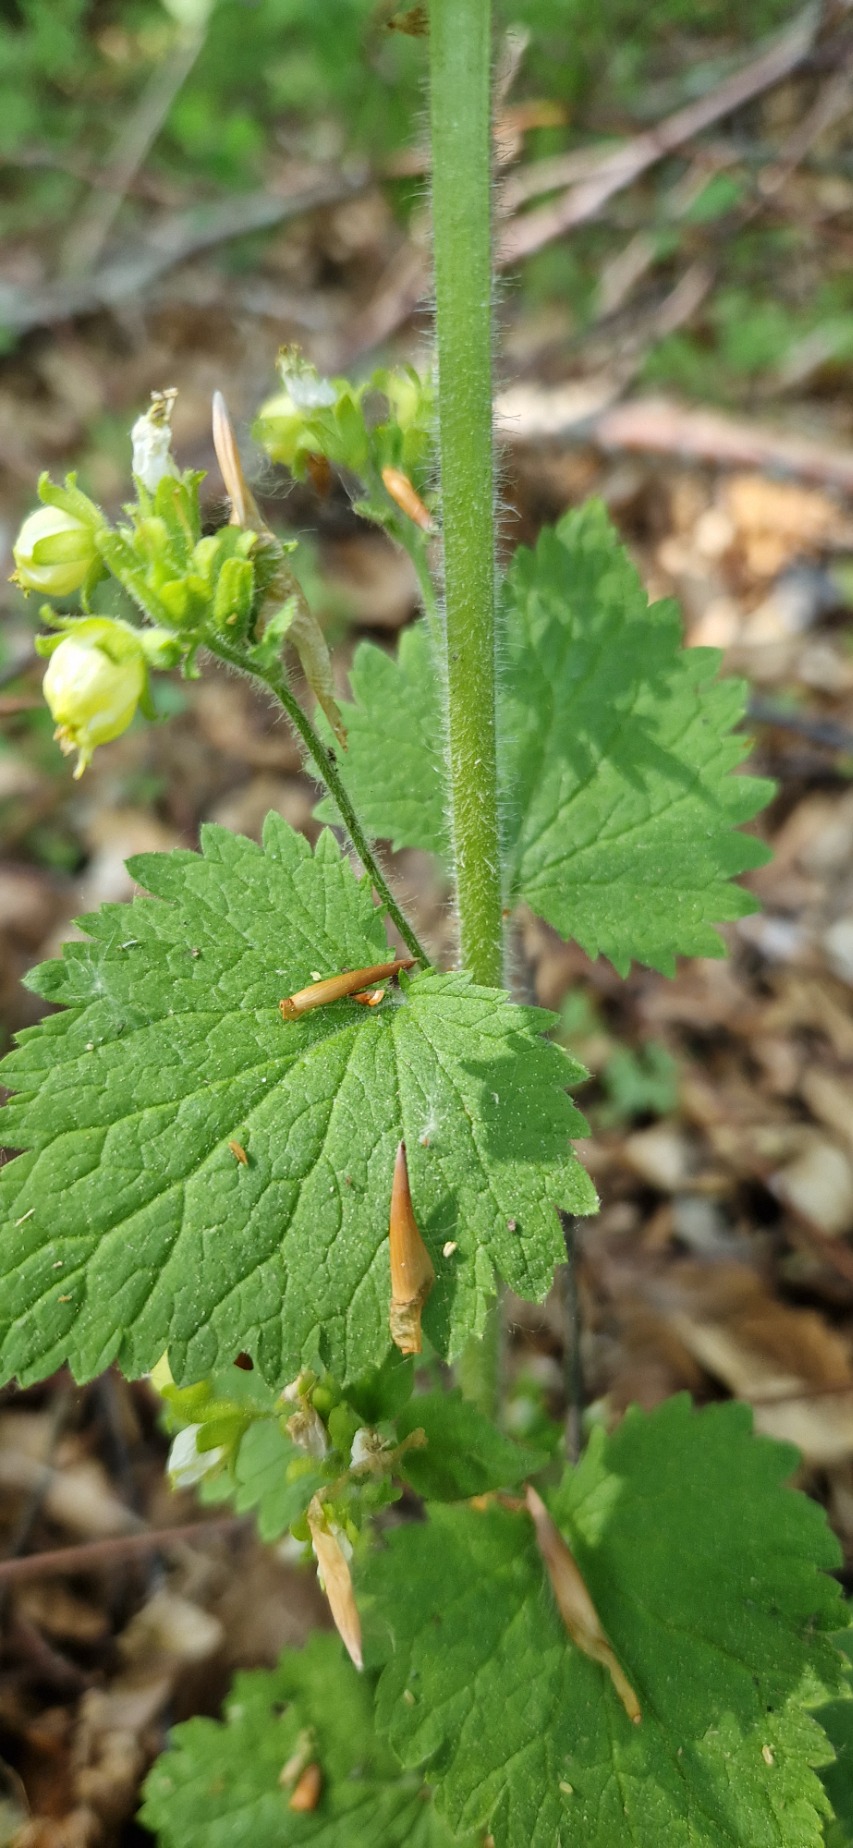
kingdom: Plantae
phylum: Tracheophyta
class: Magnoliopsida
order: Lamiales
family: Scrophulariaceae
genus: Scrophularia
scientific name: Scrophularia vernalis
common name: Vår-brunrod
